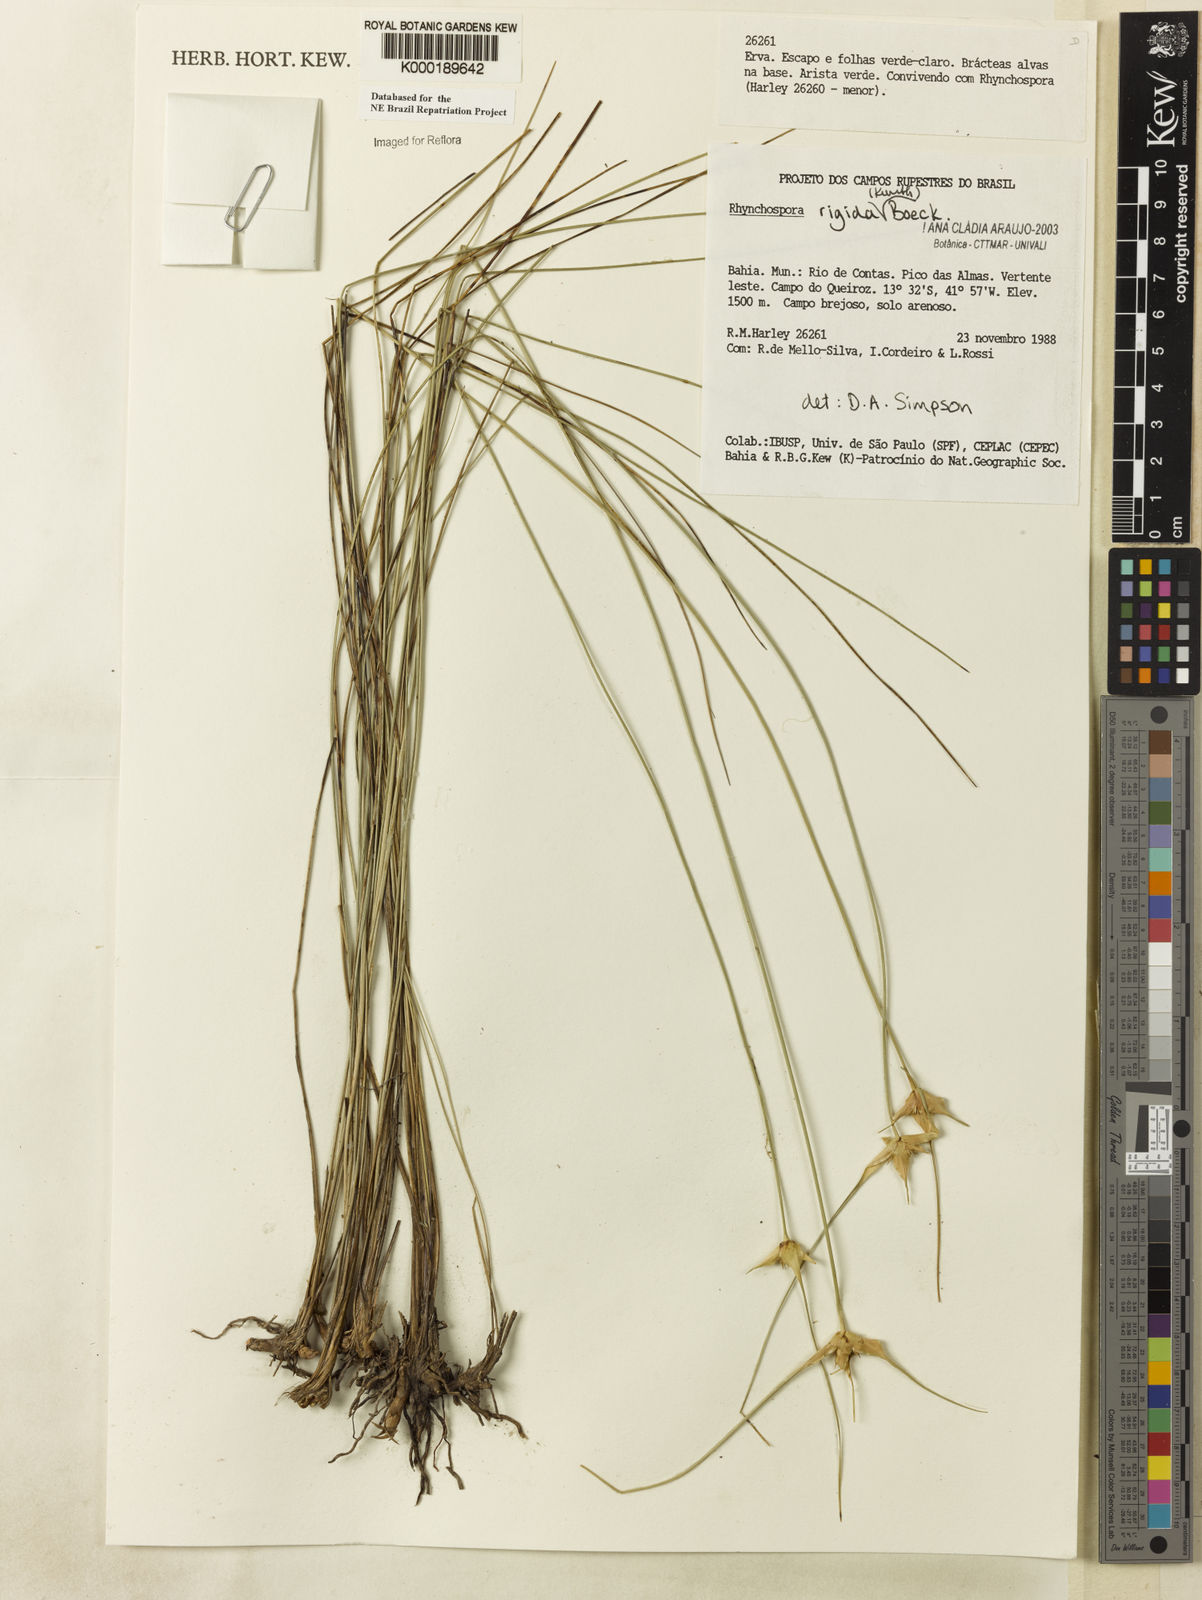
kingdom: Plantae
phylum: Tracheophyta
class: Liliopsida
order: Poales
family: Cyperaceae
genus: Rhynchospora
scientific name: Rhynchospora consanguinea
